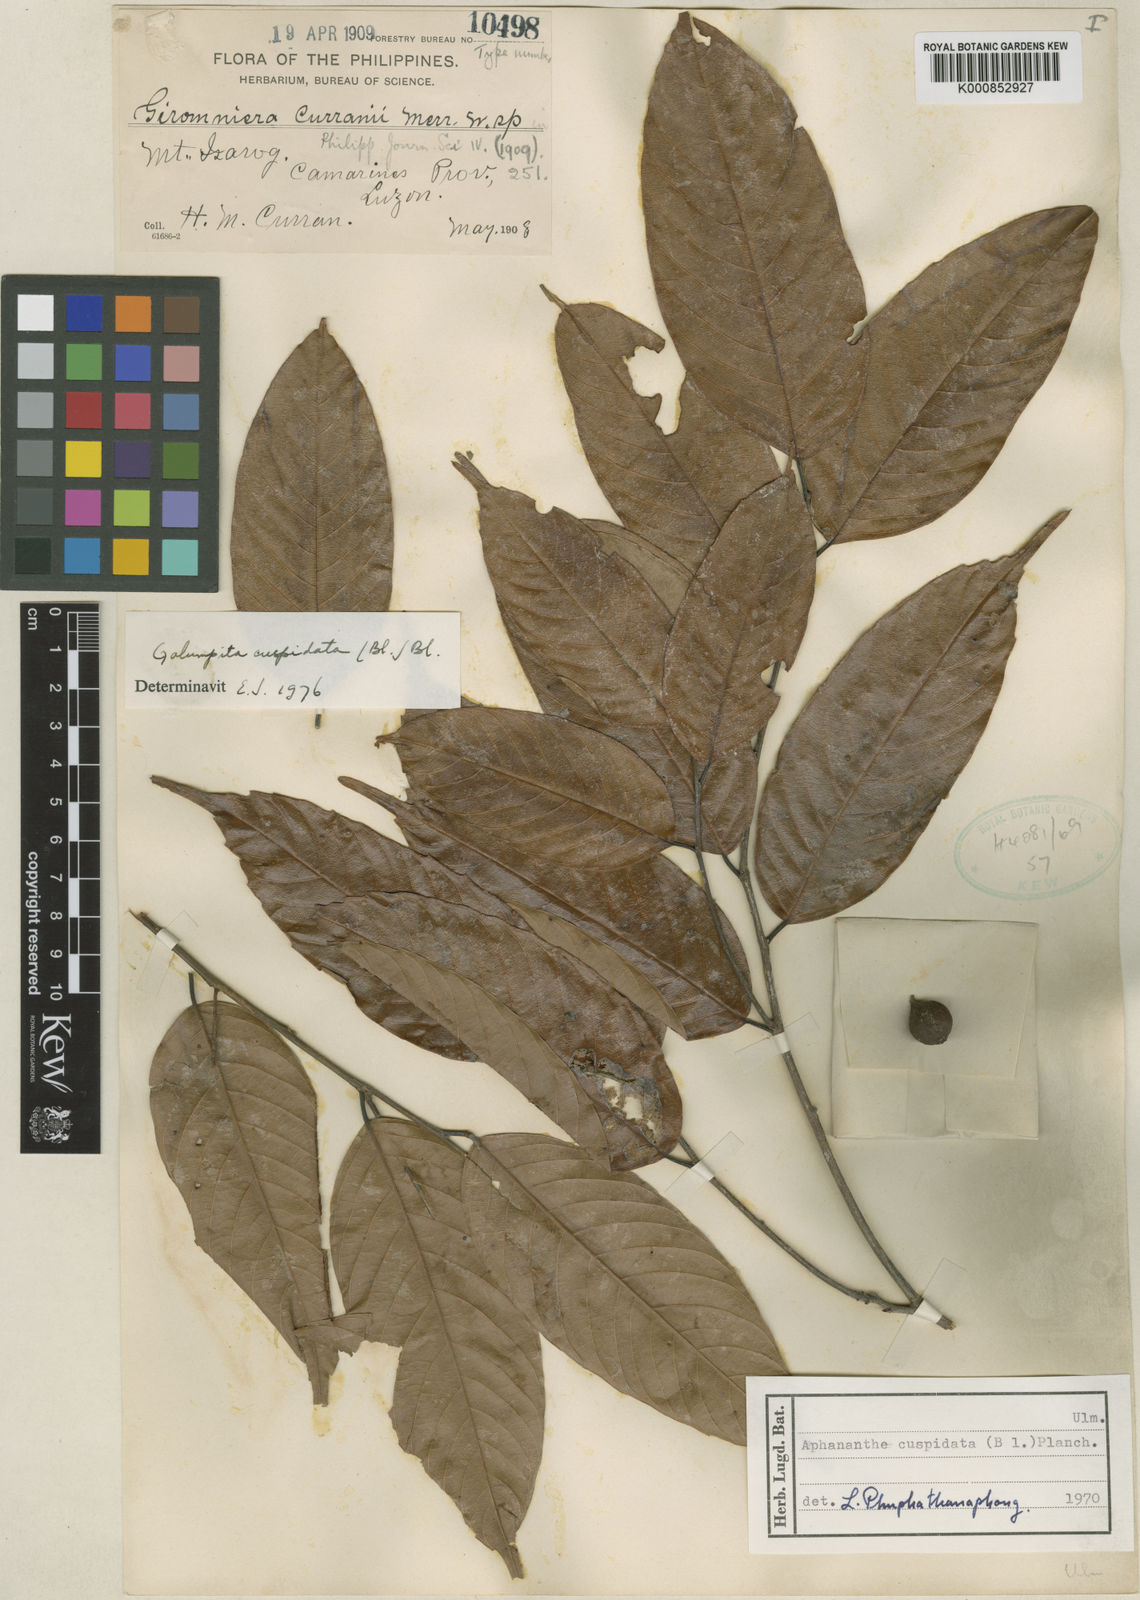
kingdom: Plantae
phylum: Tracheophyta
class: Magnoliopsida
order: Rosales
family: Cannabaceae
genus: Aphananthe
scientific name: Aphananthe cuspidata
